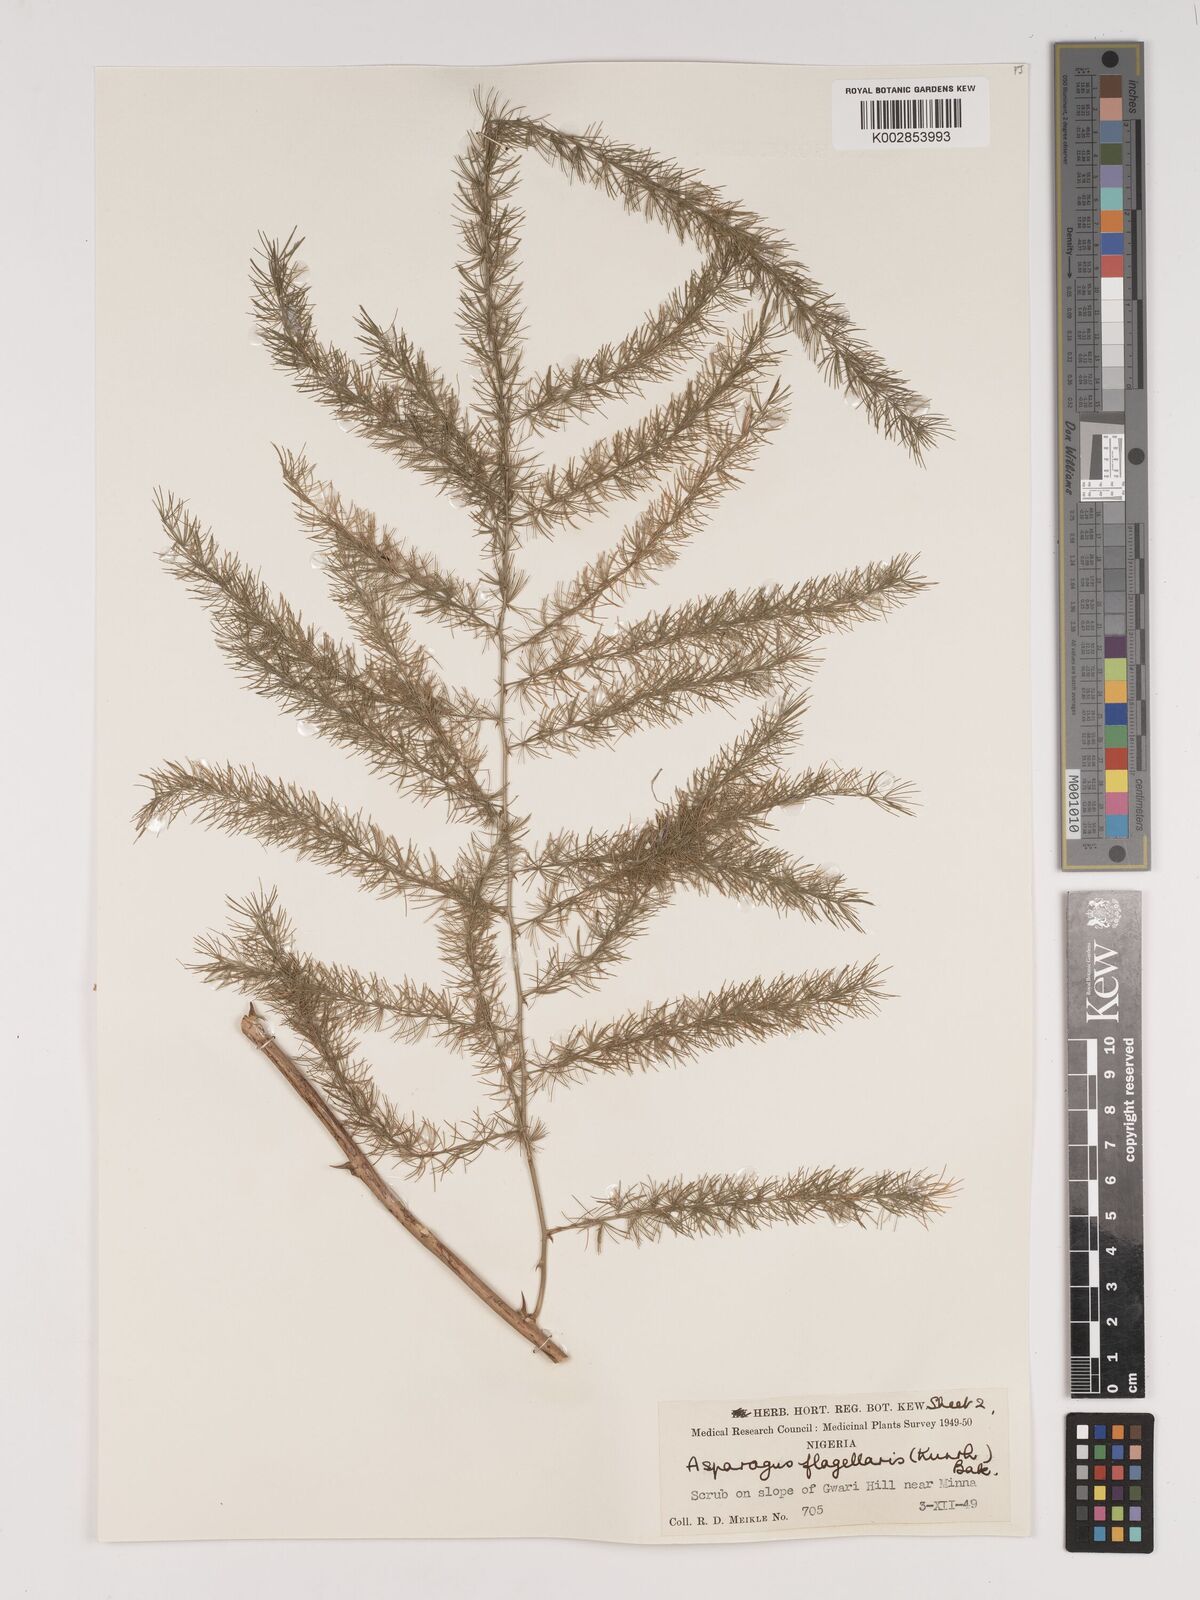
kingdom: Plantae
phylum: Tracheophyta
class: Liliopsida
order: Asparagales
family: Asparagaceae
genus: Asparagus
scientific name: Asparagus flagellaris
